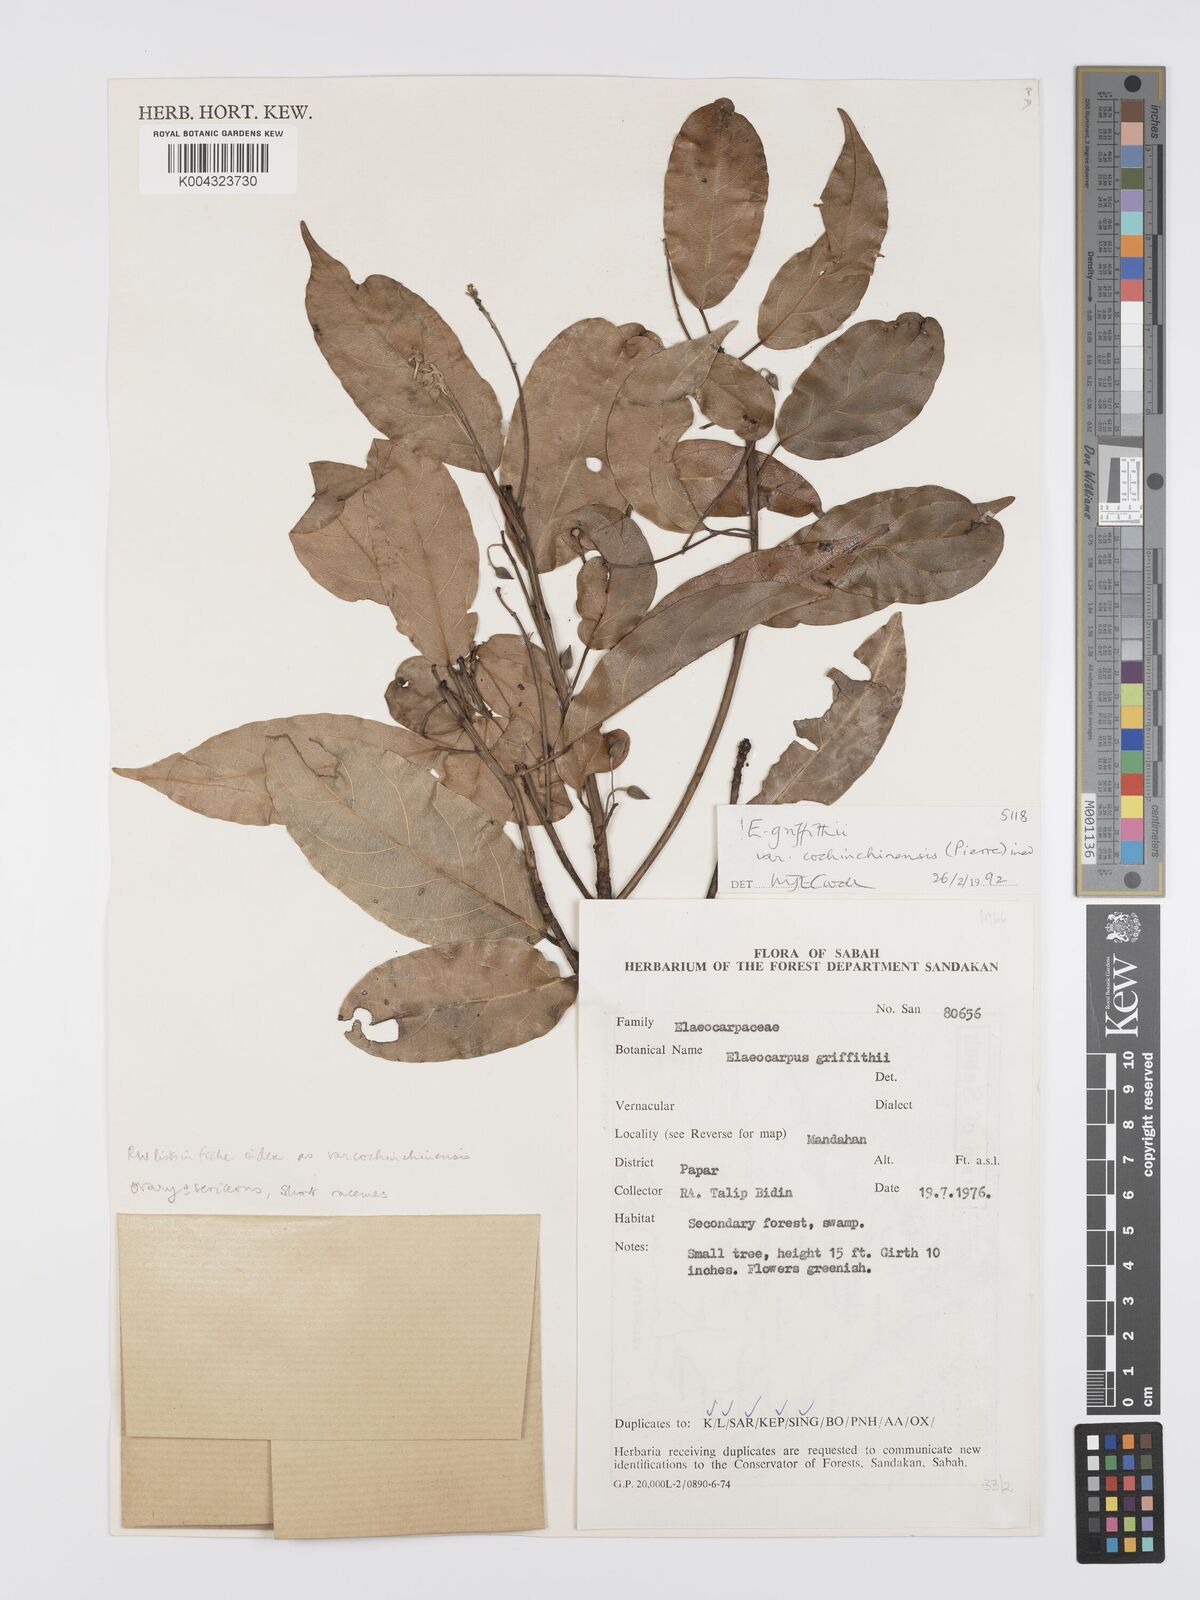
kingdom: Plantae
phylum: Tracheophyta
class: Magnoliopsida
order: Oxalidales
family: Elaeocarpaceae
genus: Elaeocarpus
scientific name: Elaeocarpus griffithii
